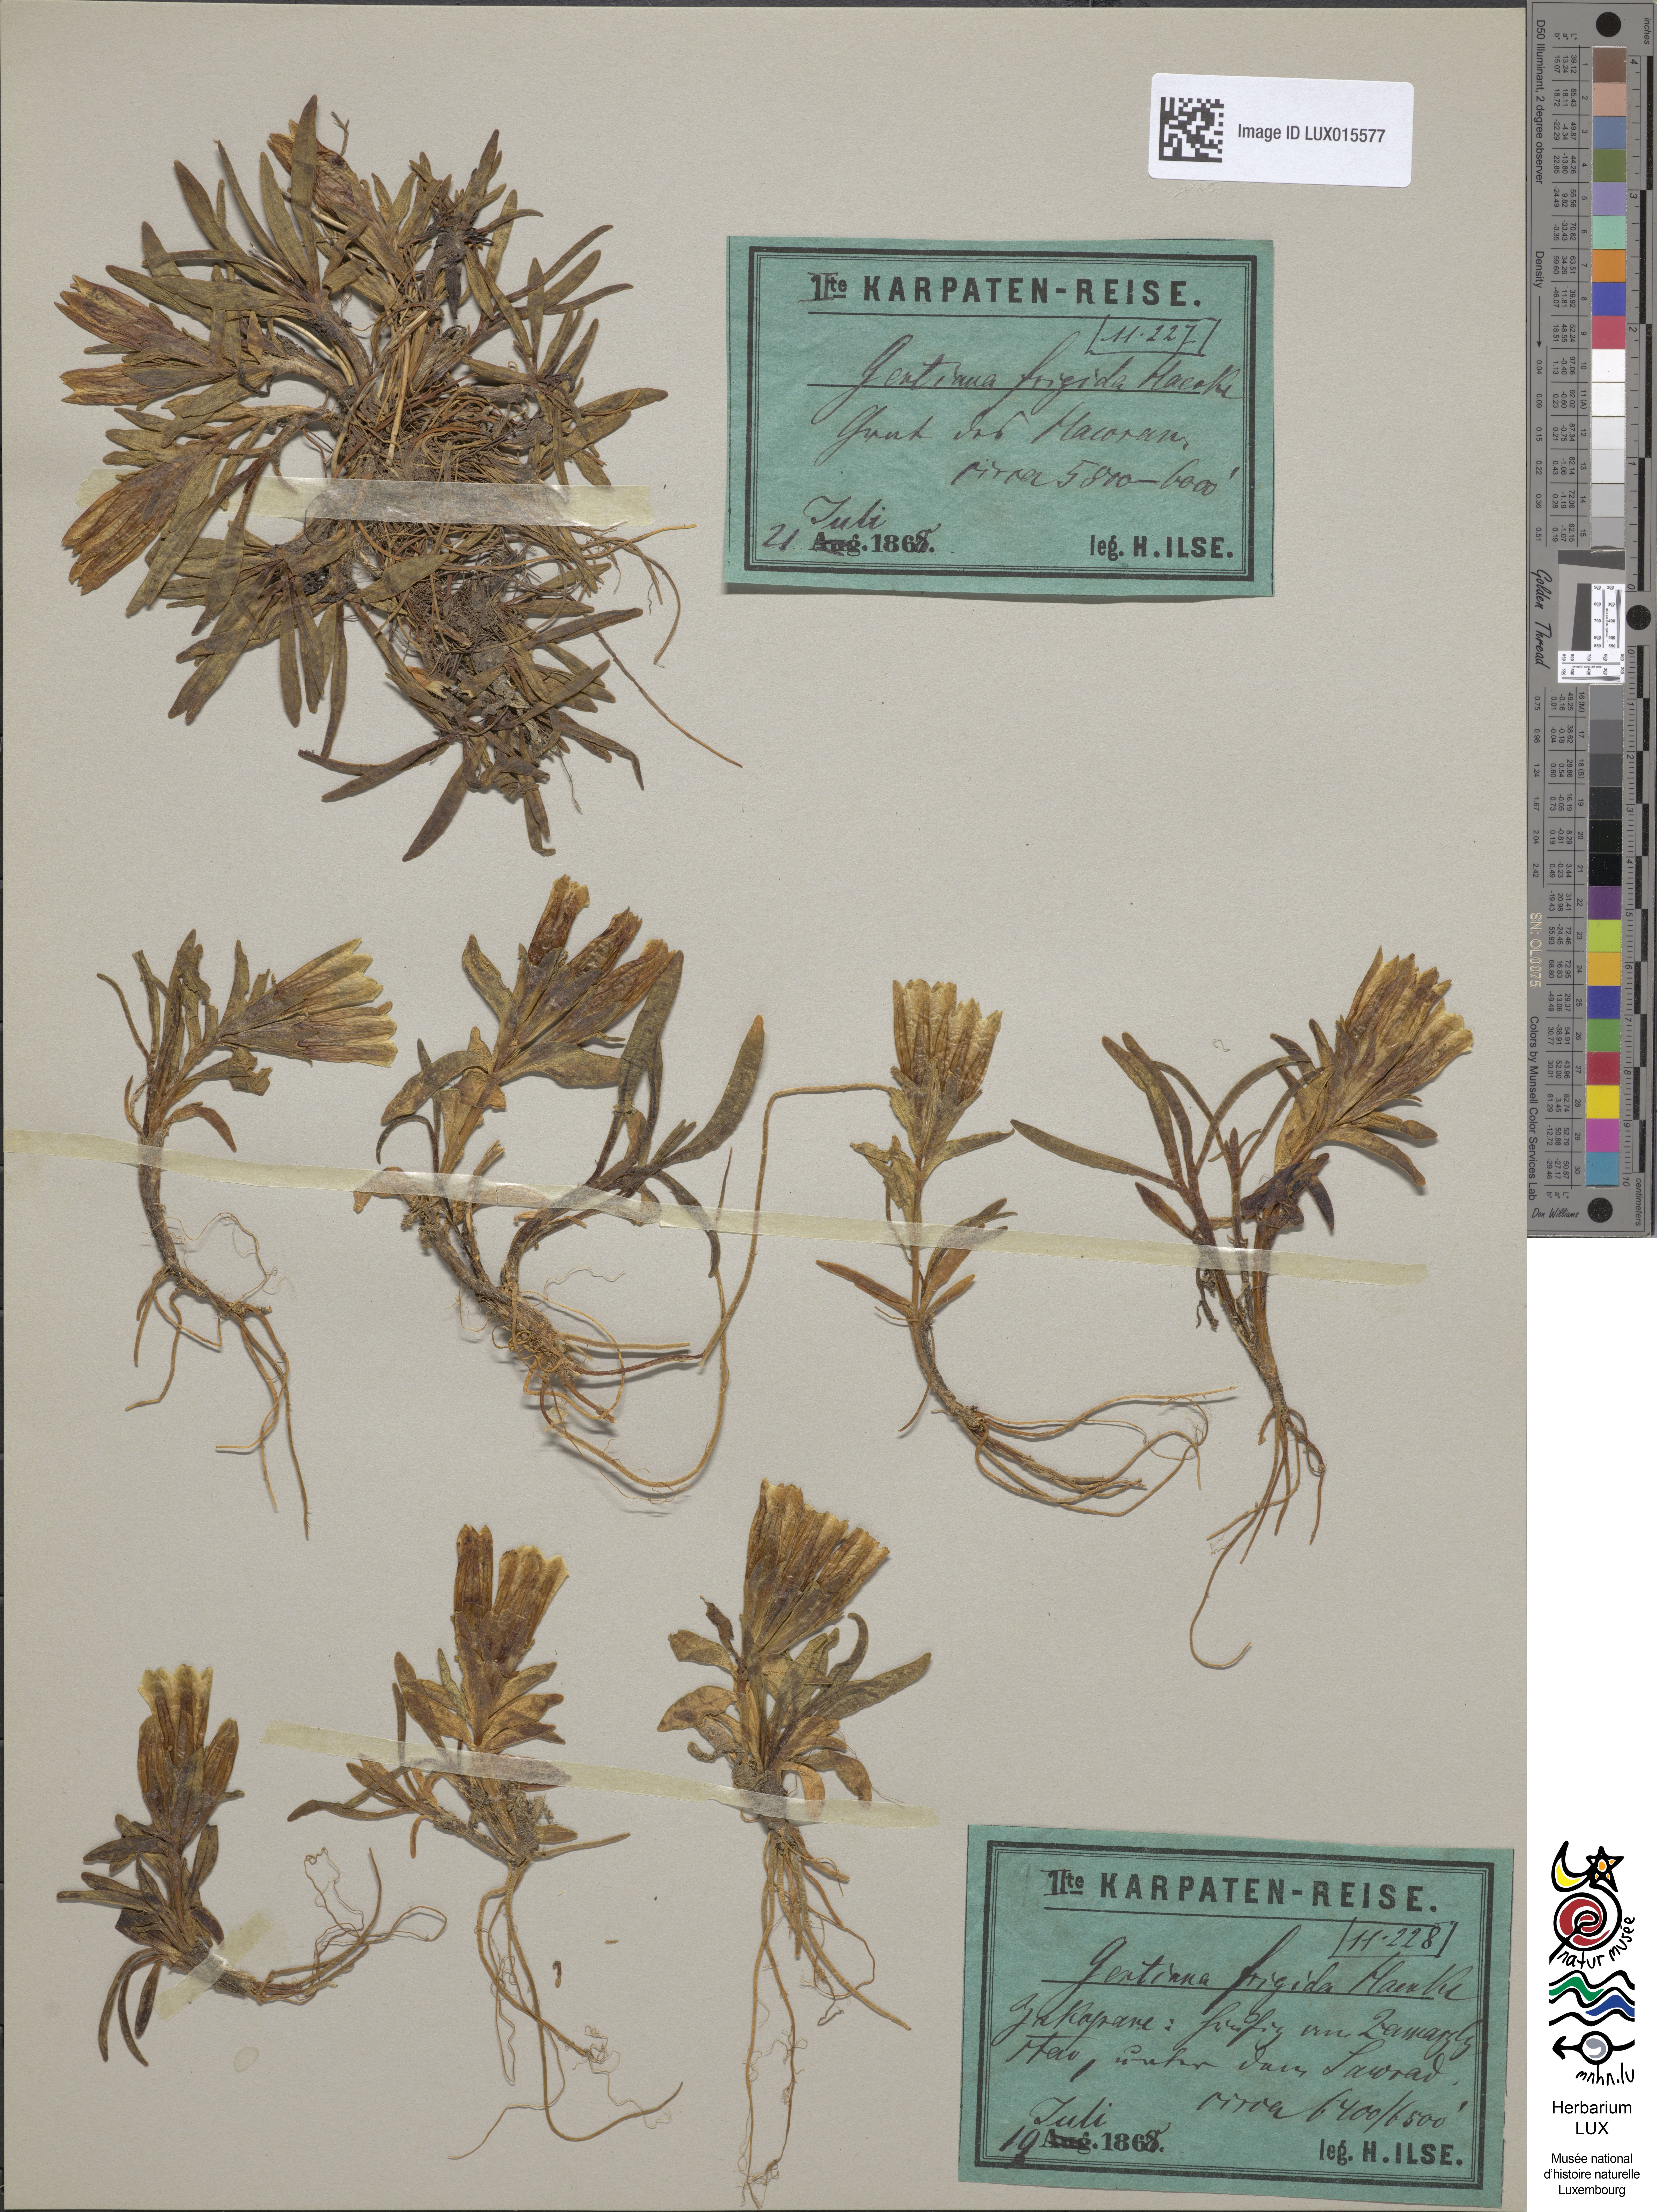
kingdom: Plantae
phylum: Tracheophyta
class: Magnoliopsida
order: Gentianales
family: Gentianaceae
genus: Gentiana
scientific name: Gentiana frigida
